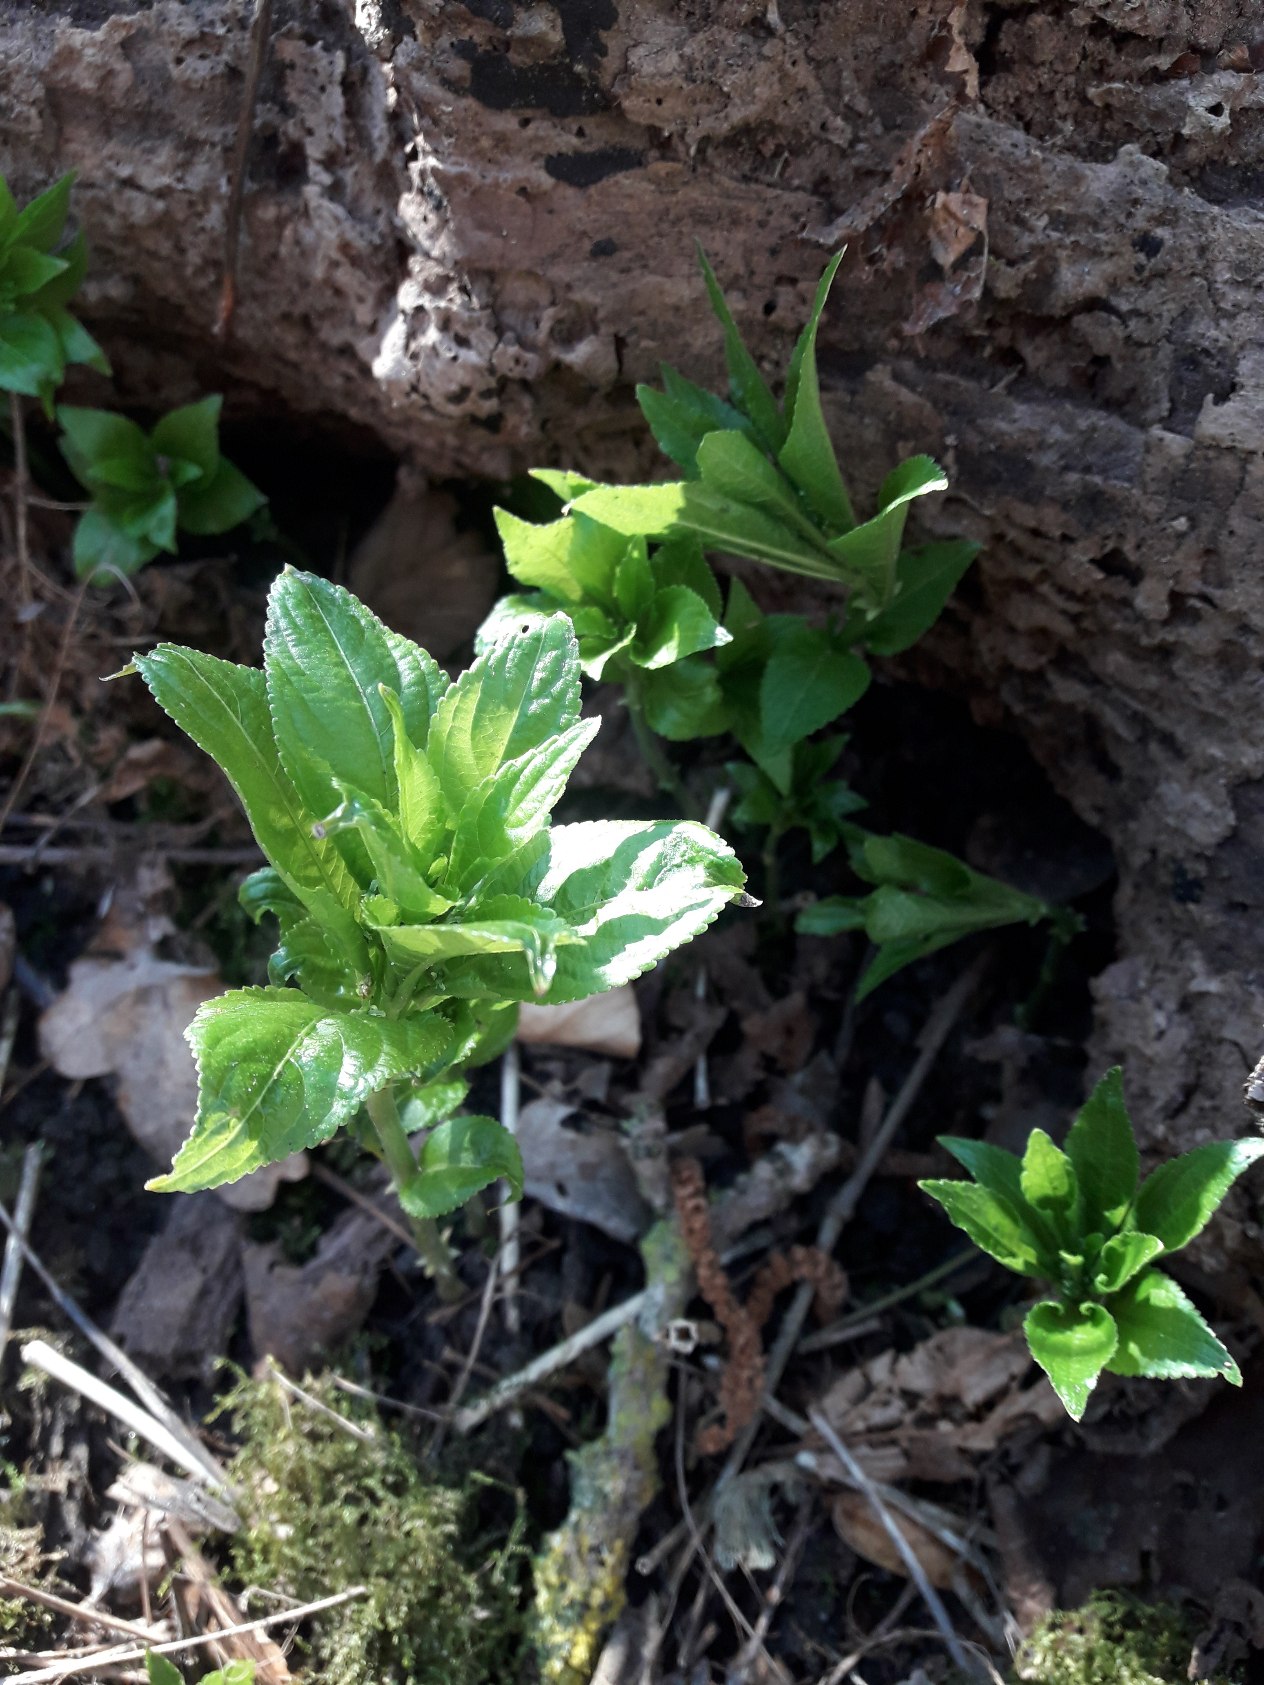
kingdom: Plantae
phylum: Tracheophyta
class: Magnoliopsida
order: Malpighiales
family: Euphorbiaceae
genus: Mercurialis
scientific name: Mercurialis perennis
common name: Almindelig bingelurt
